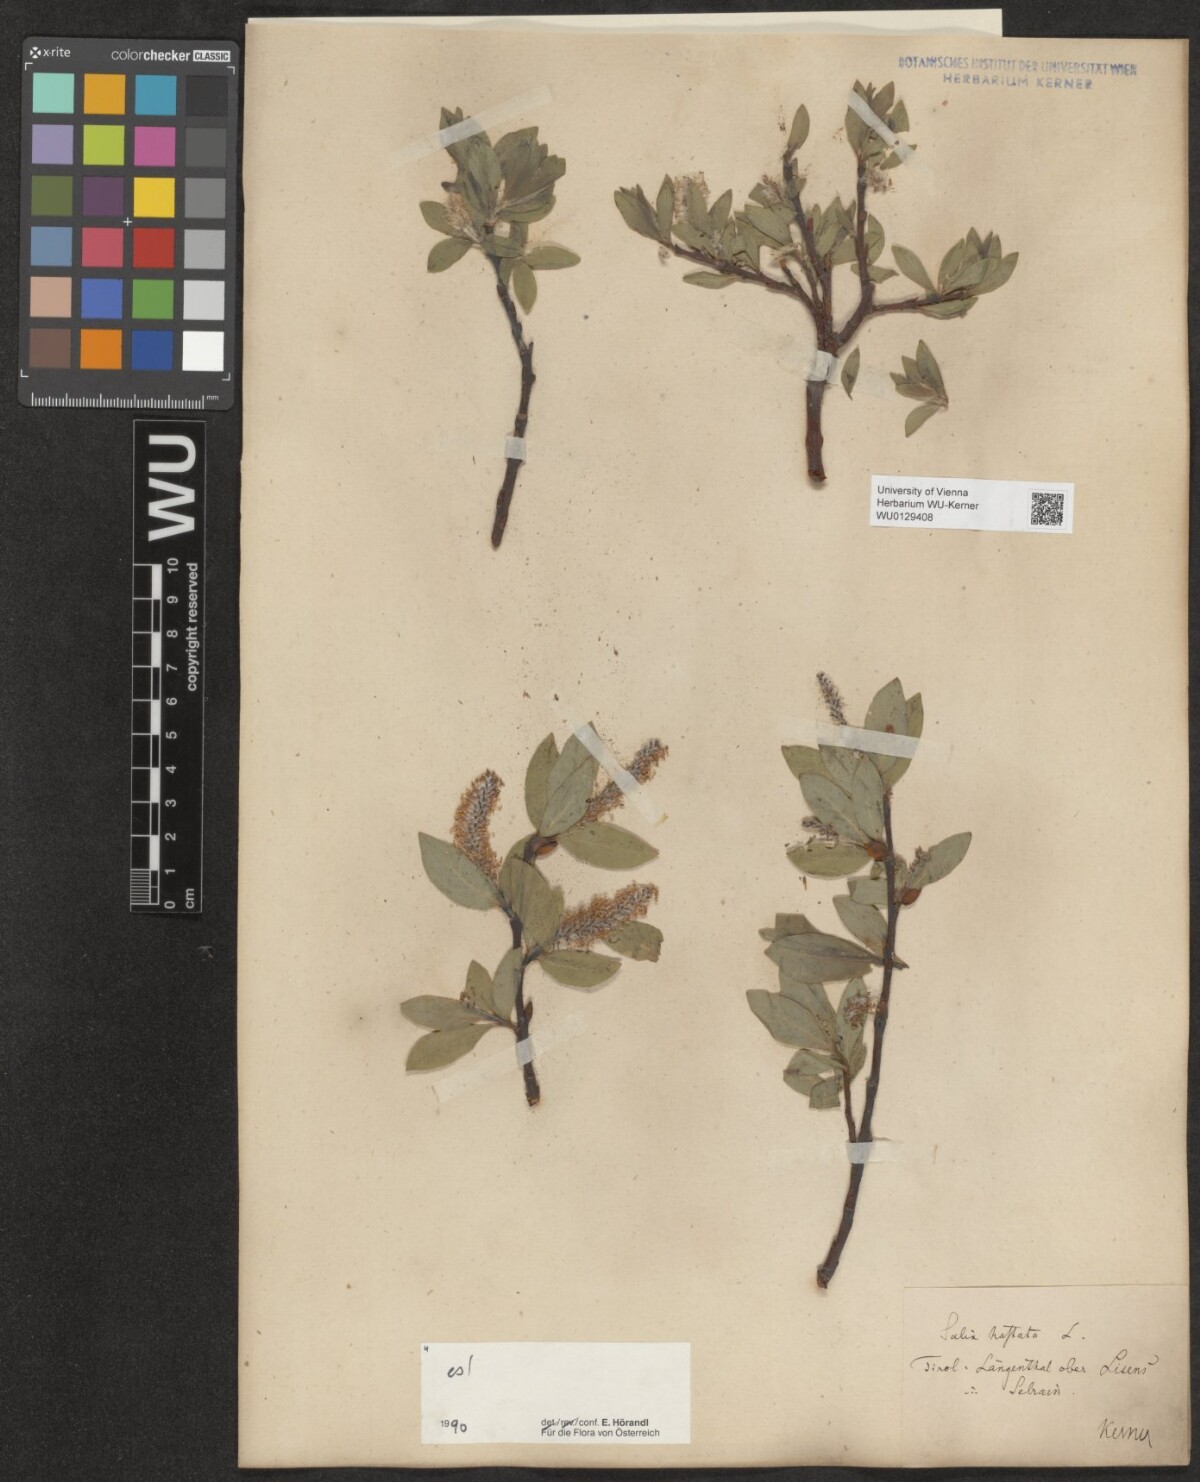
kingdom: Plantae
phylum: Tracheophyta
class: Magnoliopsida
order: Malpighiales
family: Salicaceae
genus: Salix
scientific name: Salix hastata
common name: Halberd willow
